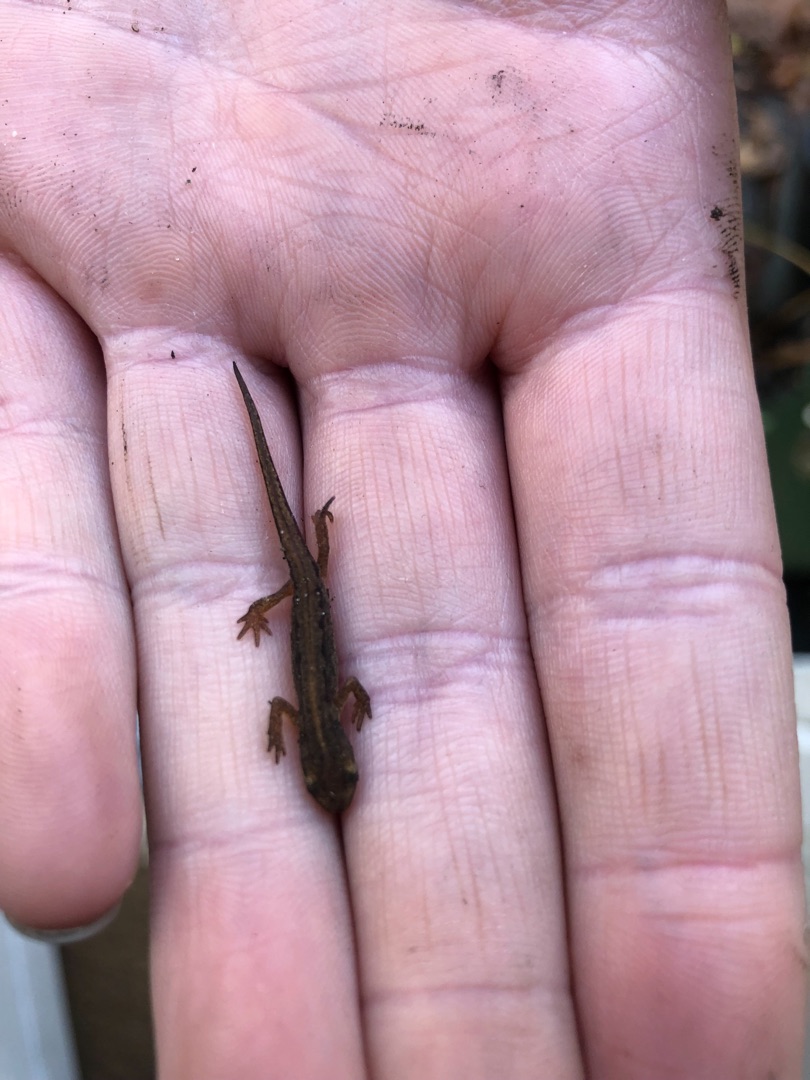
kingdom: Animalia
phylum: Chordata
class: Amphibia
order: Caudata
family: Salamandridae
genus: Lissotriton
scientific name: Lissotriton vulgaris
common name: Lille vandsalamander
